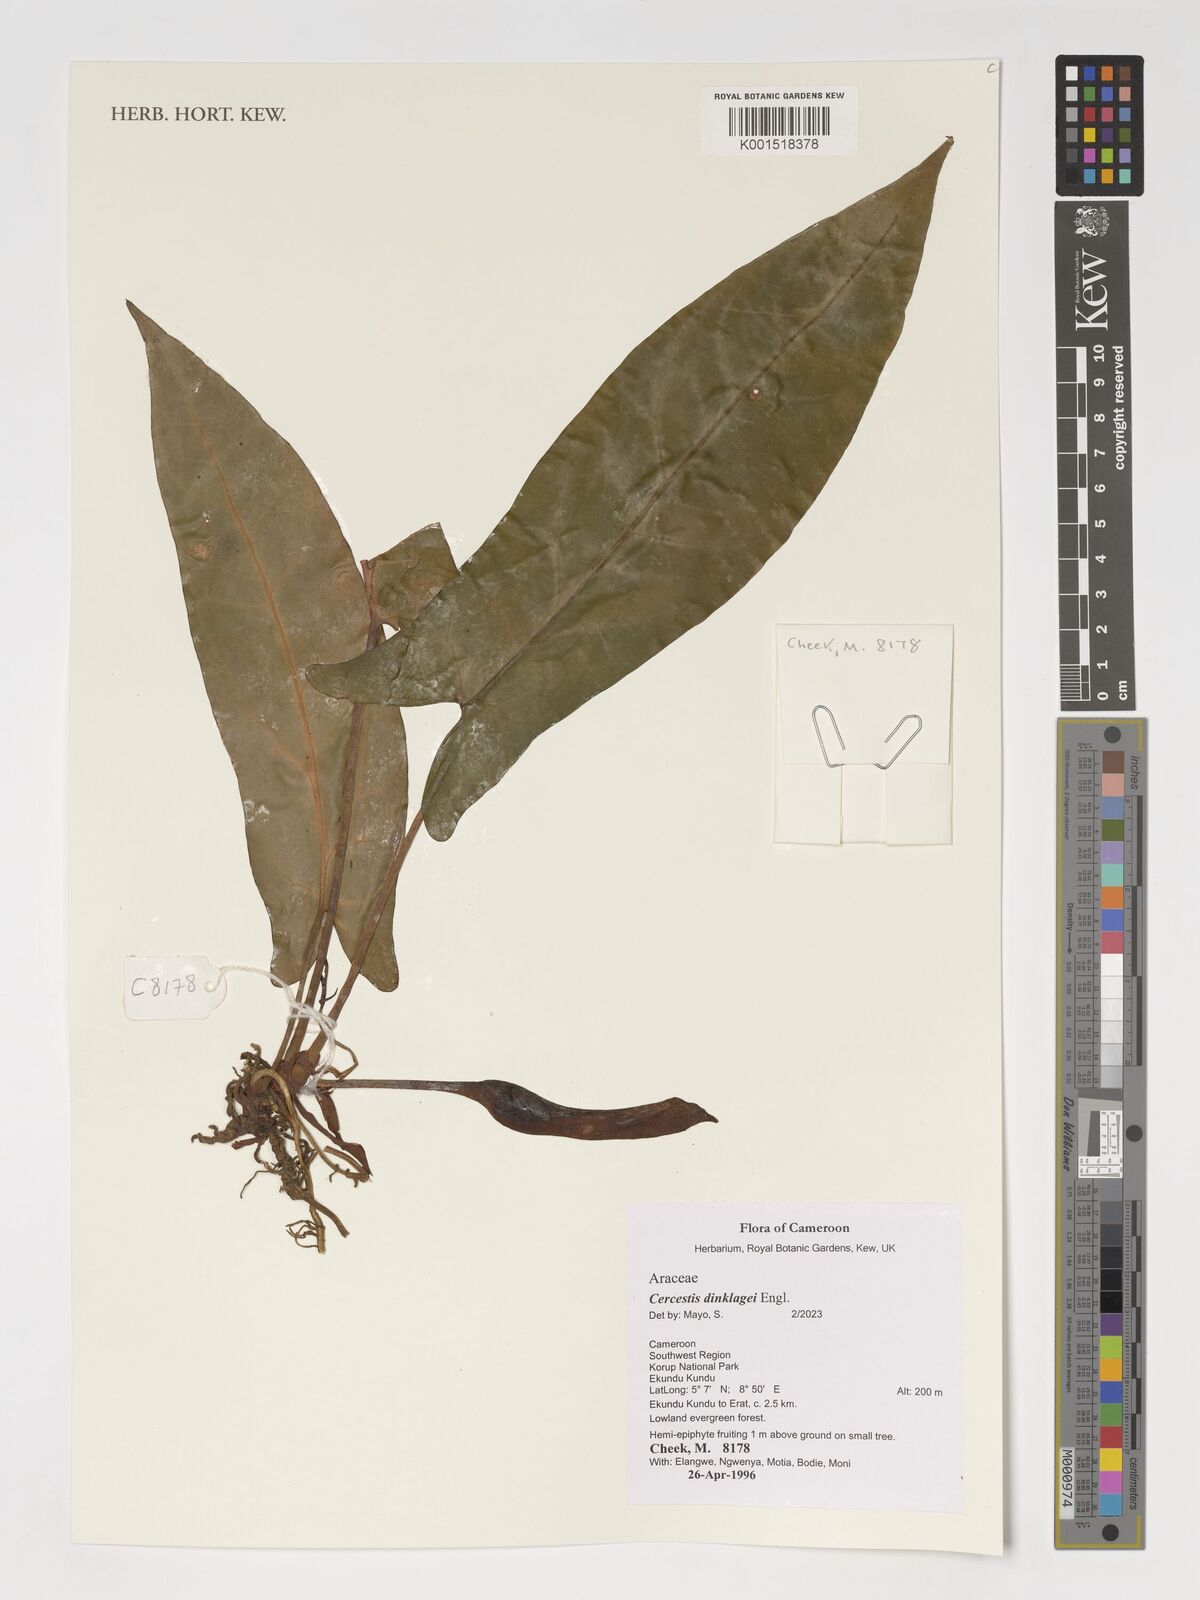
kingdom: Plantae
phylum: Tracheophyta
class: Liliopsida
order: Alismatales
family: Araceae
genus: Cercestis
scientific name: Cercestis dinklagei
